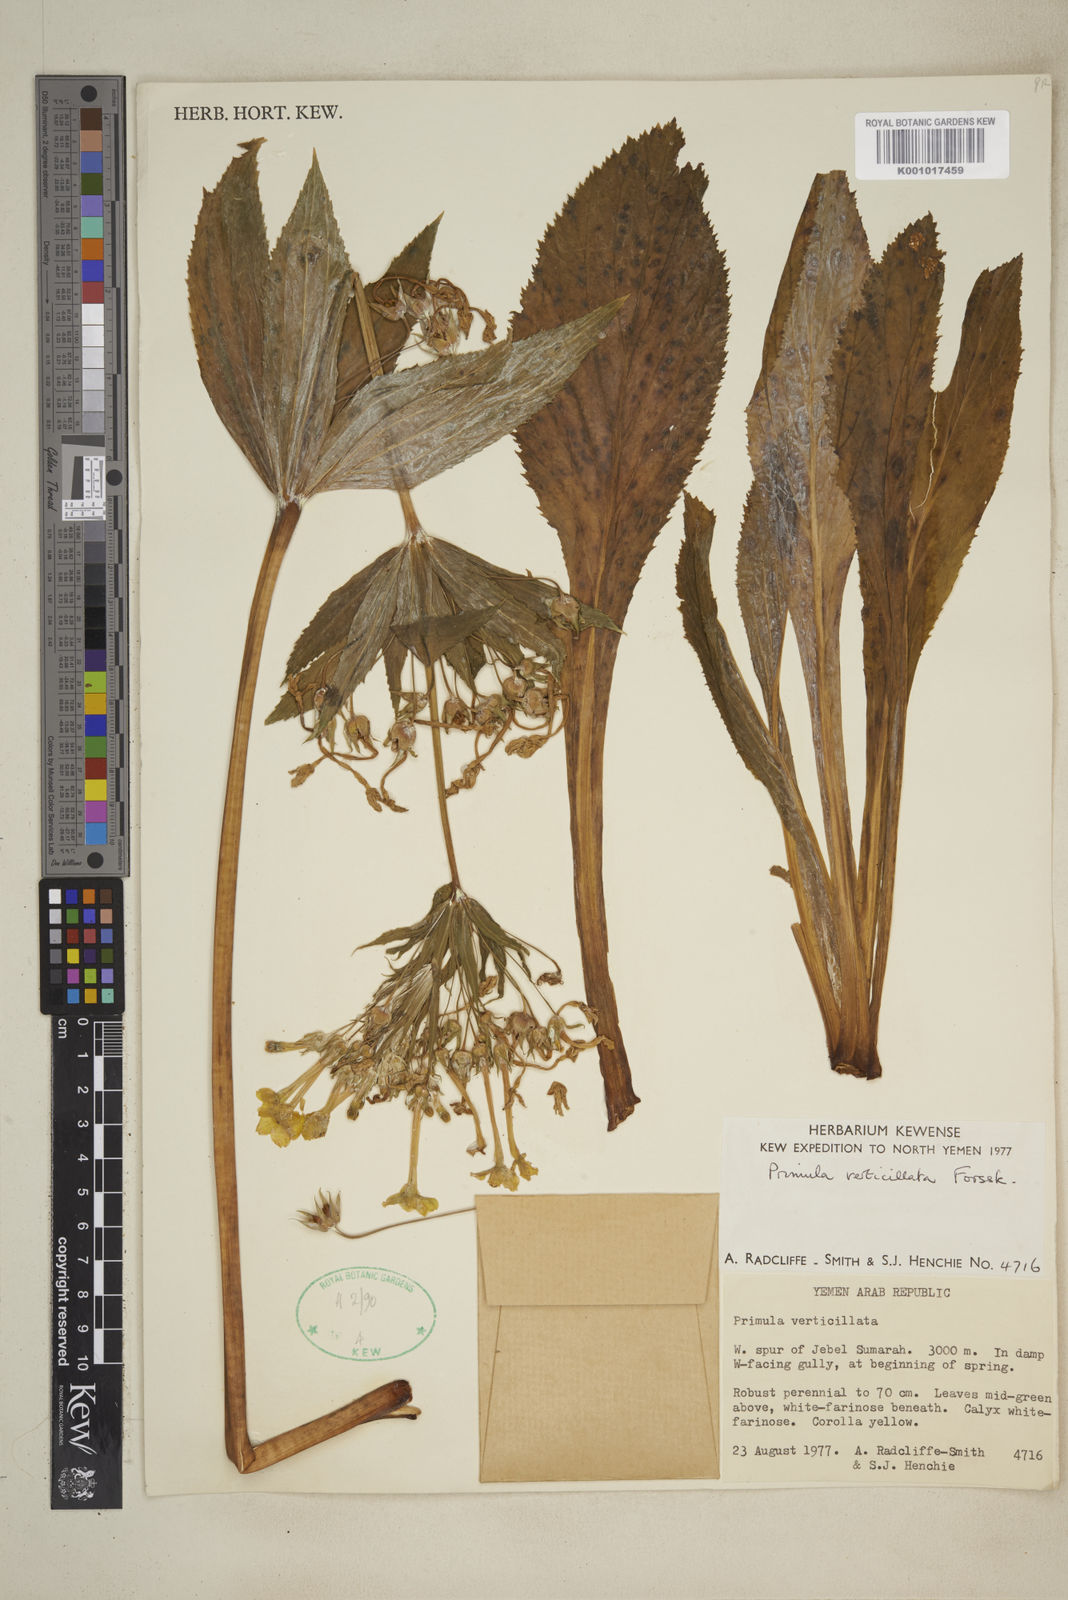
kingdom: Plantae
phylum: Tracheophyta
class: Magnoliopsida
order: Ericales
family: Primulaceae
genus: Evotrochis
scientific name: Evotrochis verticillata
